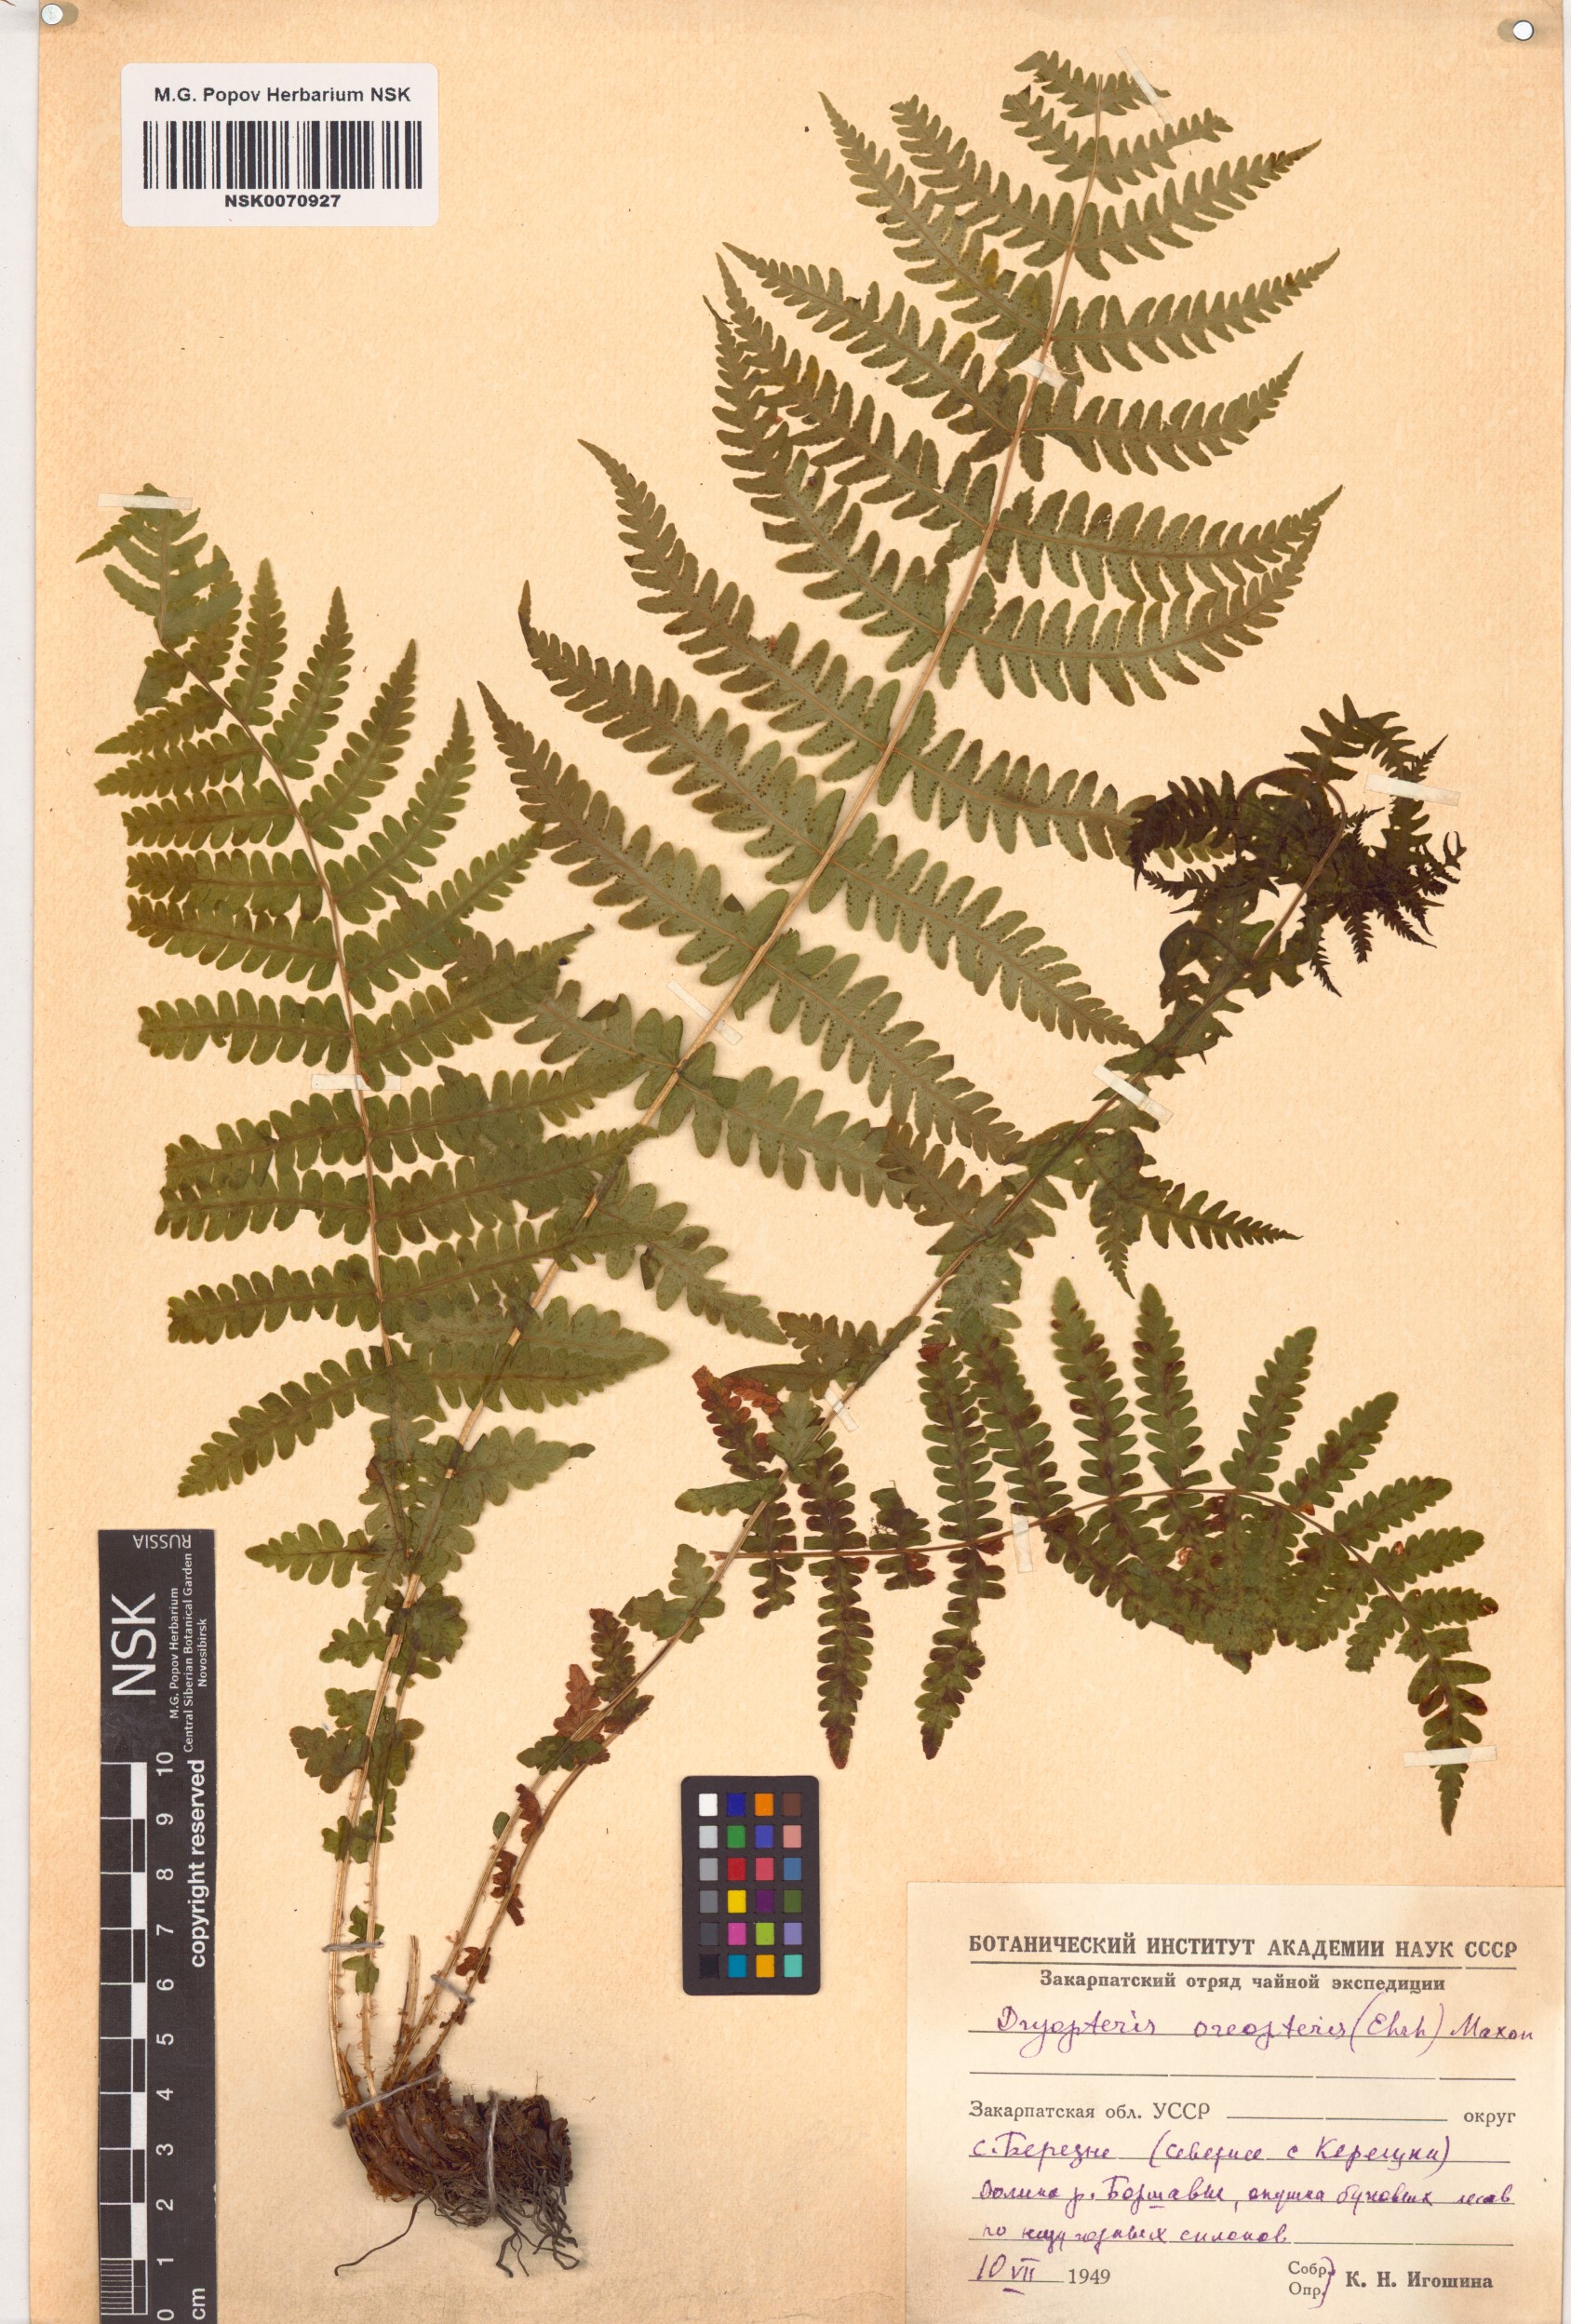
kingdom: Plantae
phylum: Tracheophyta
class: Polypodiopsida
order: Polypodiales
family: Thelypteridaceae
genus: Oreopteris
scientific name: Oreopteris limbosperma
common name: Lemon-scented fern
